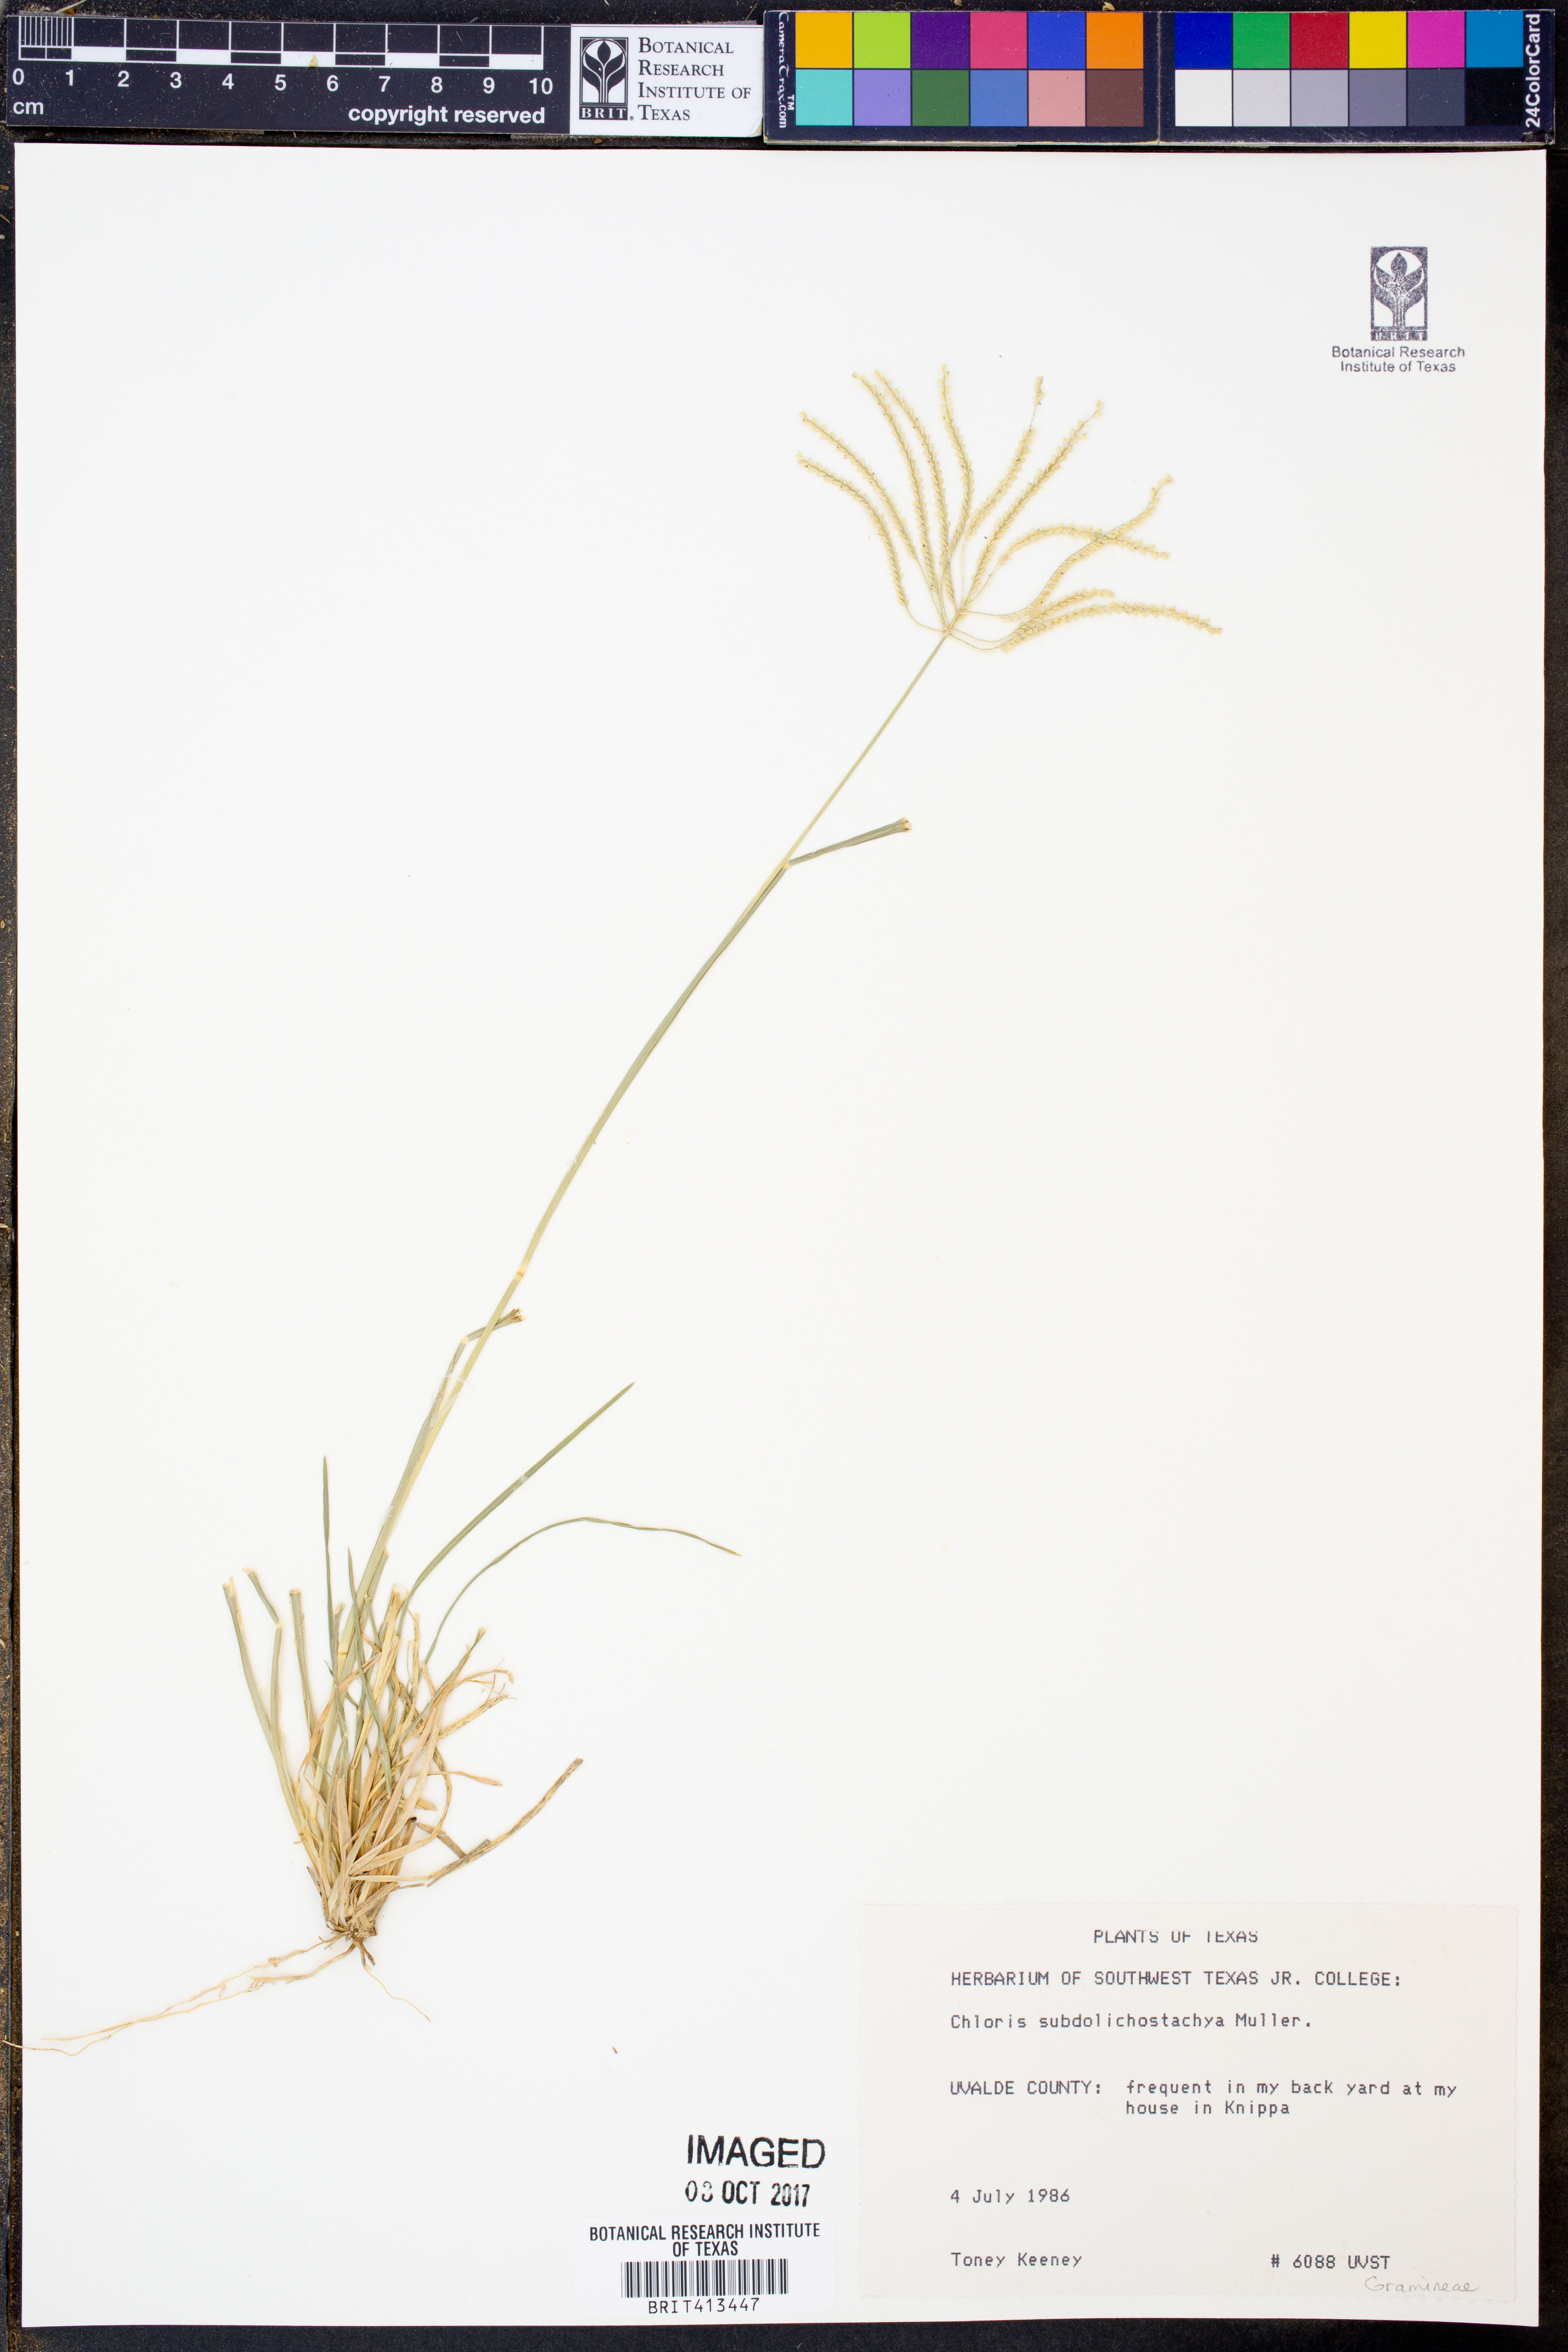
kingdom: Plantae
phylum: Tracheophyta
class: Liliopsida
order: Poales
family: Poaceae
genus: Chloris
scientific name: Chloris subdolichostachya
